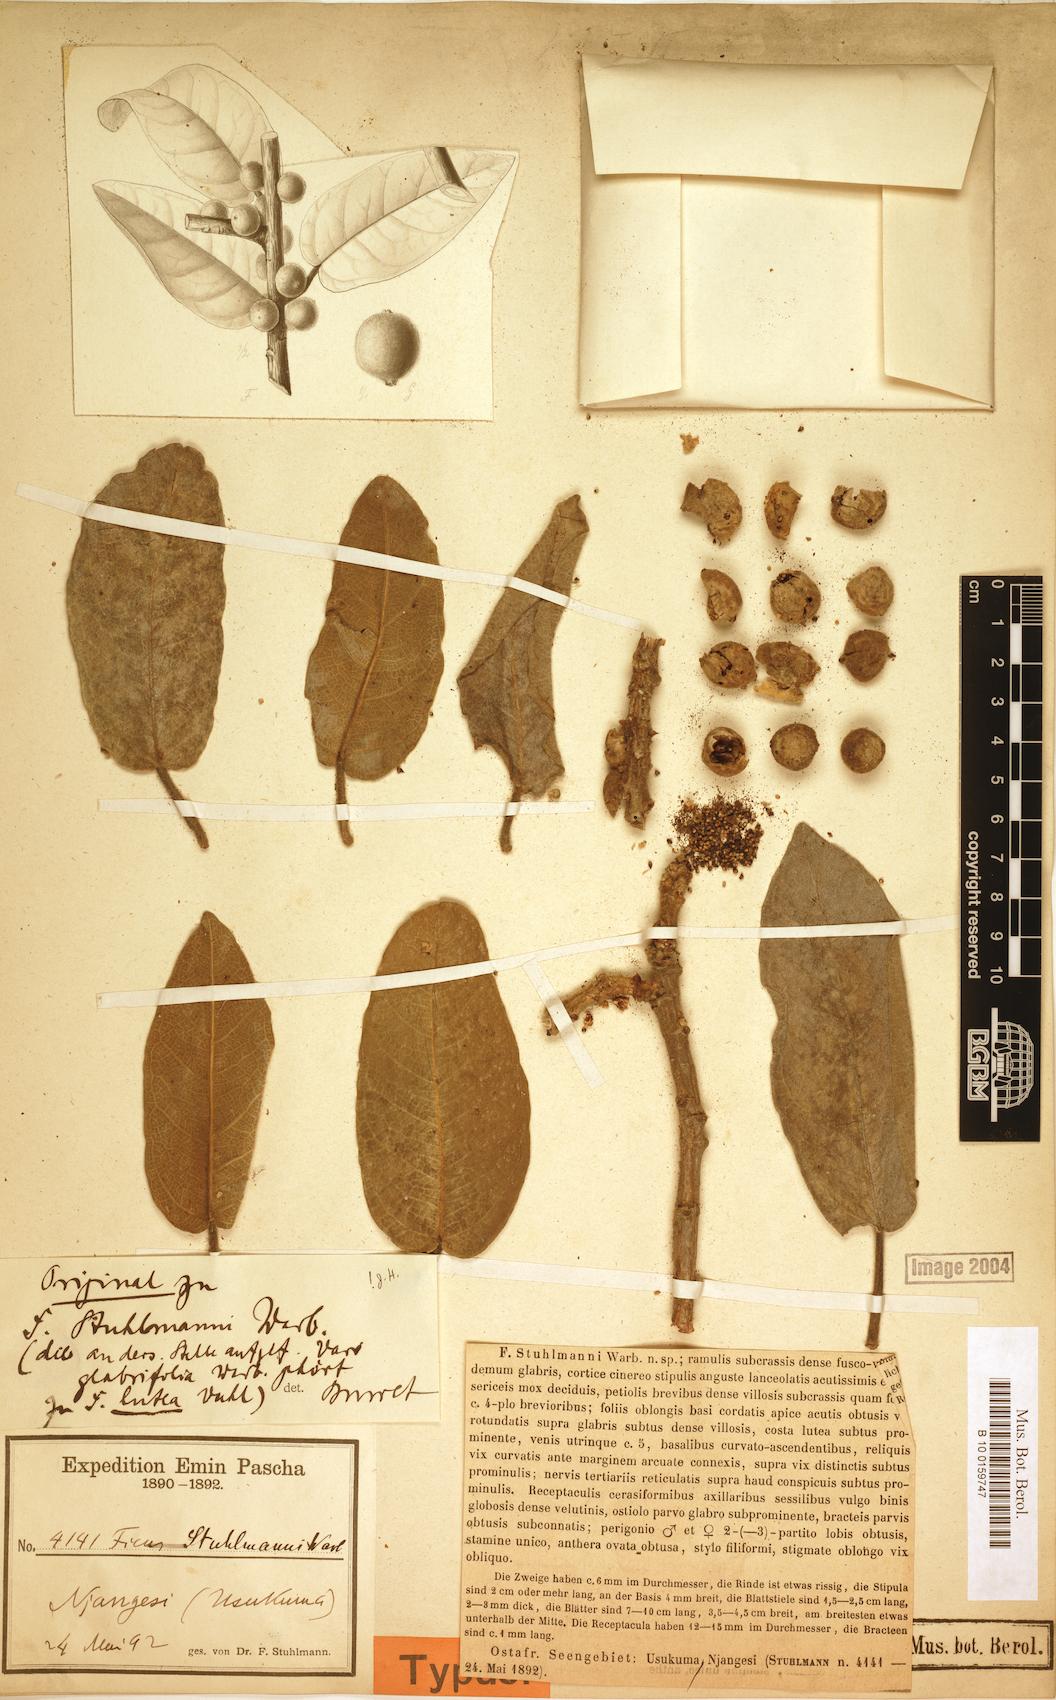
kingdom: Plantae
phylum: Tracheophyta
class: Magnoliopsida
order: Rosales
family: Moraceae
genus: Ficus
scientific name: Ficus stuhlmannii
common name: Lowveld fig
